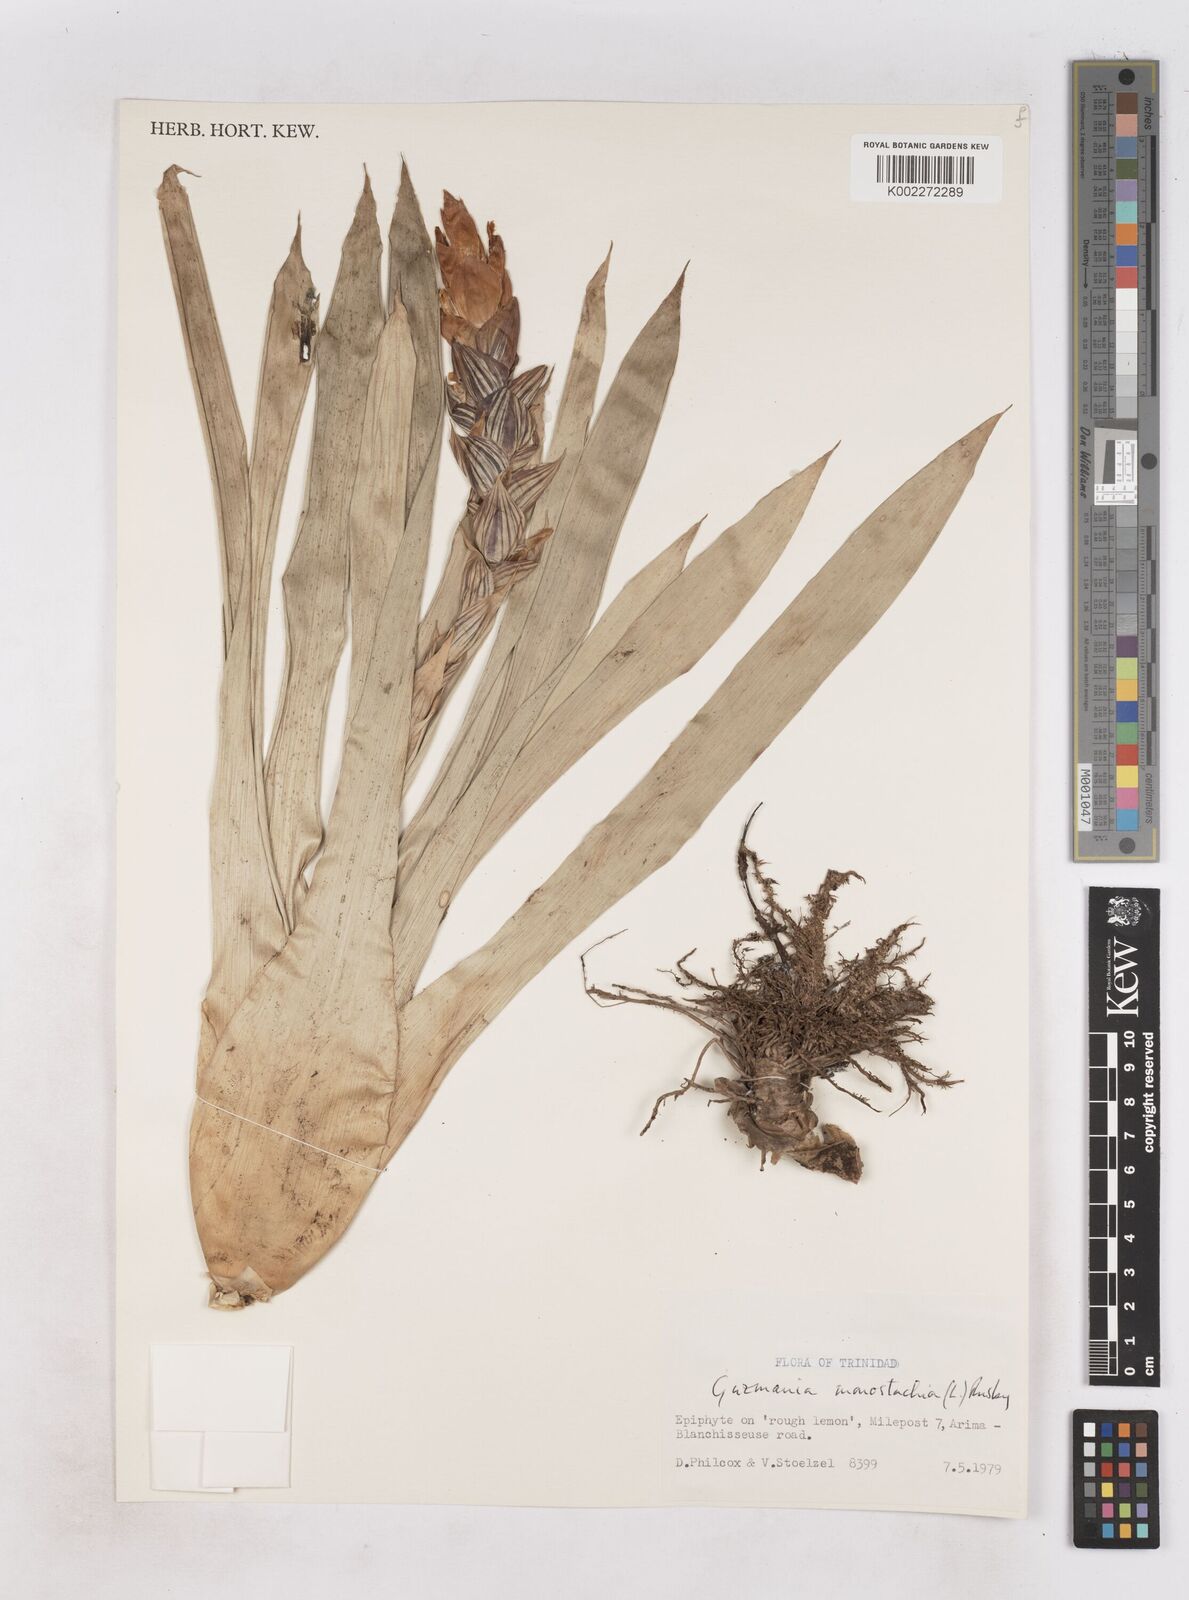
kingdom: Plantae
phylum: Tracheophyta
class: Liliopsida
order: Poales
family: Bromeliaceae
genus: Guzmania
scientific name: Guzmania monostachia
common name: West indian tufted airplant
